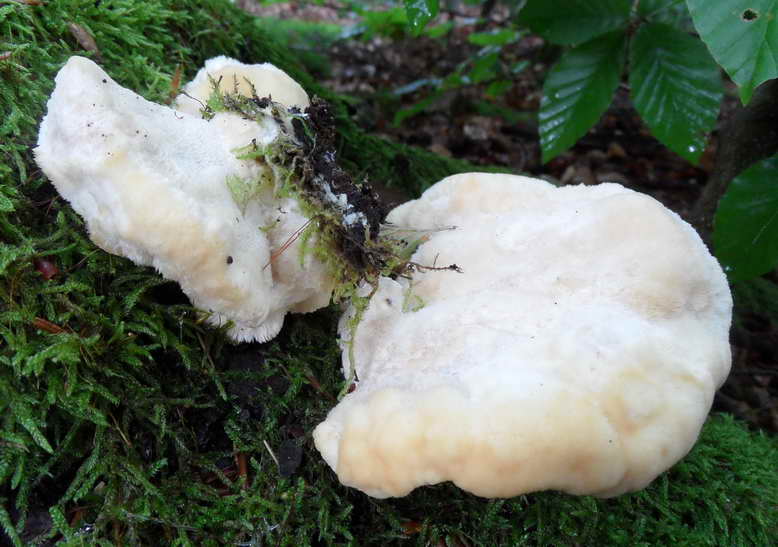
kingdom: Fungi
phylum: Basidiomycota
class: Agaricomycetes
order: Polyporales
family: Fomitopsidaceae
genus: Climacocystis
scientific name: Climacocystis borealis
